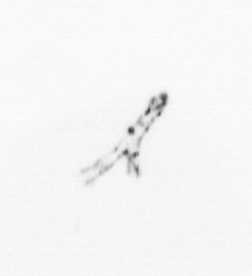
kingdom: Chromista
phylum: Ochrophyta
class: Bacillariophyceae
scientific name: Bacillariophyceae
